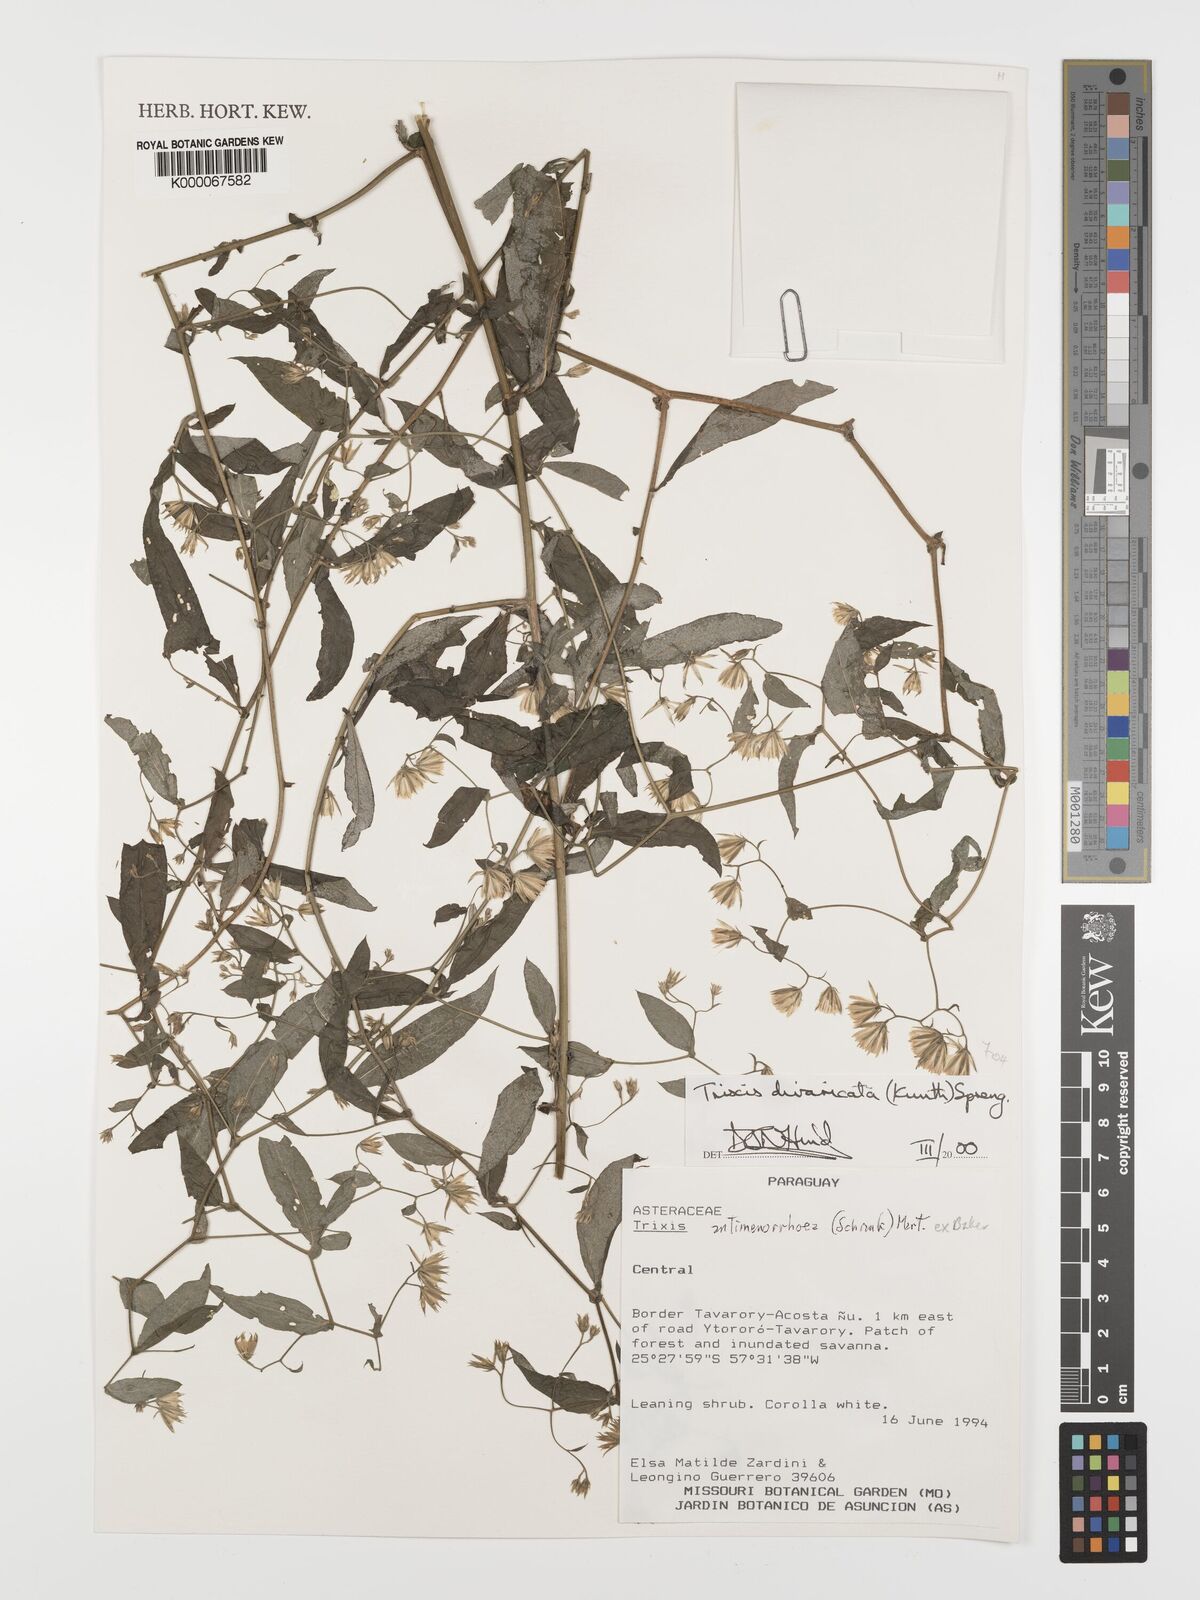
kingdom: Plantae
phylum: Tracheophyta
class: Magnoliopsida
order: Asterales
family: Asteraceae
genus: Trixis
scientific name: Trixis divaricata
